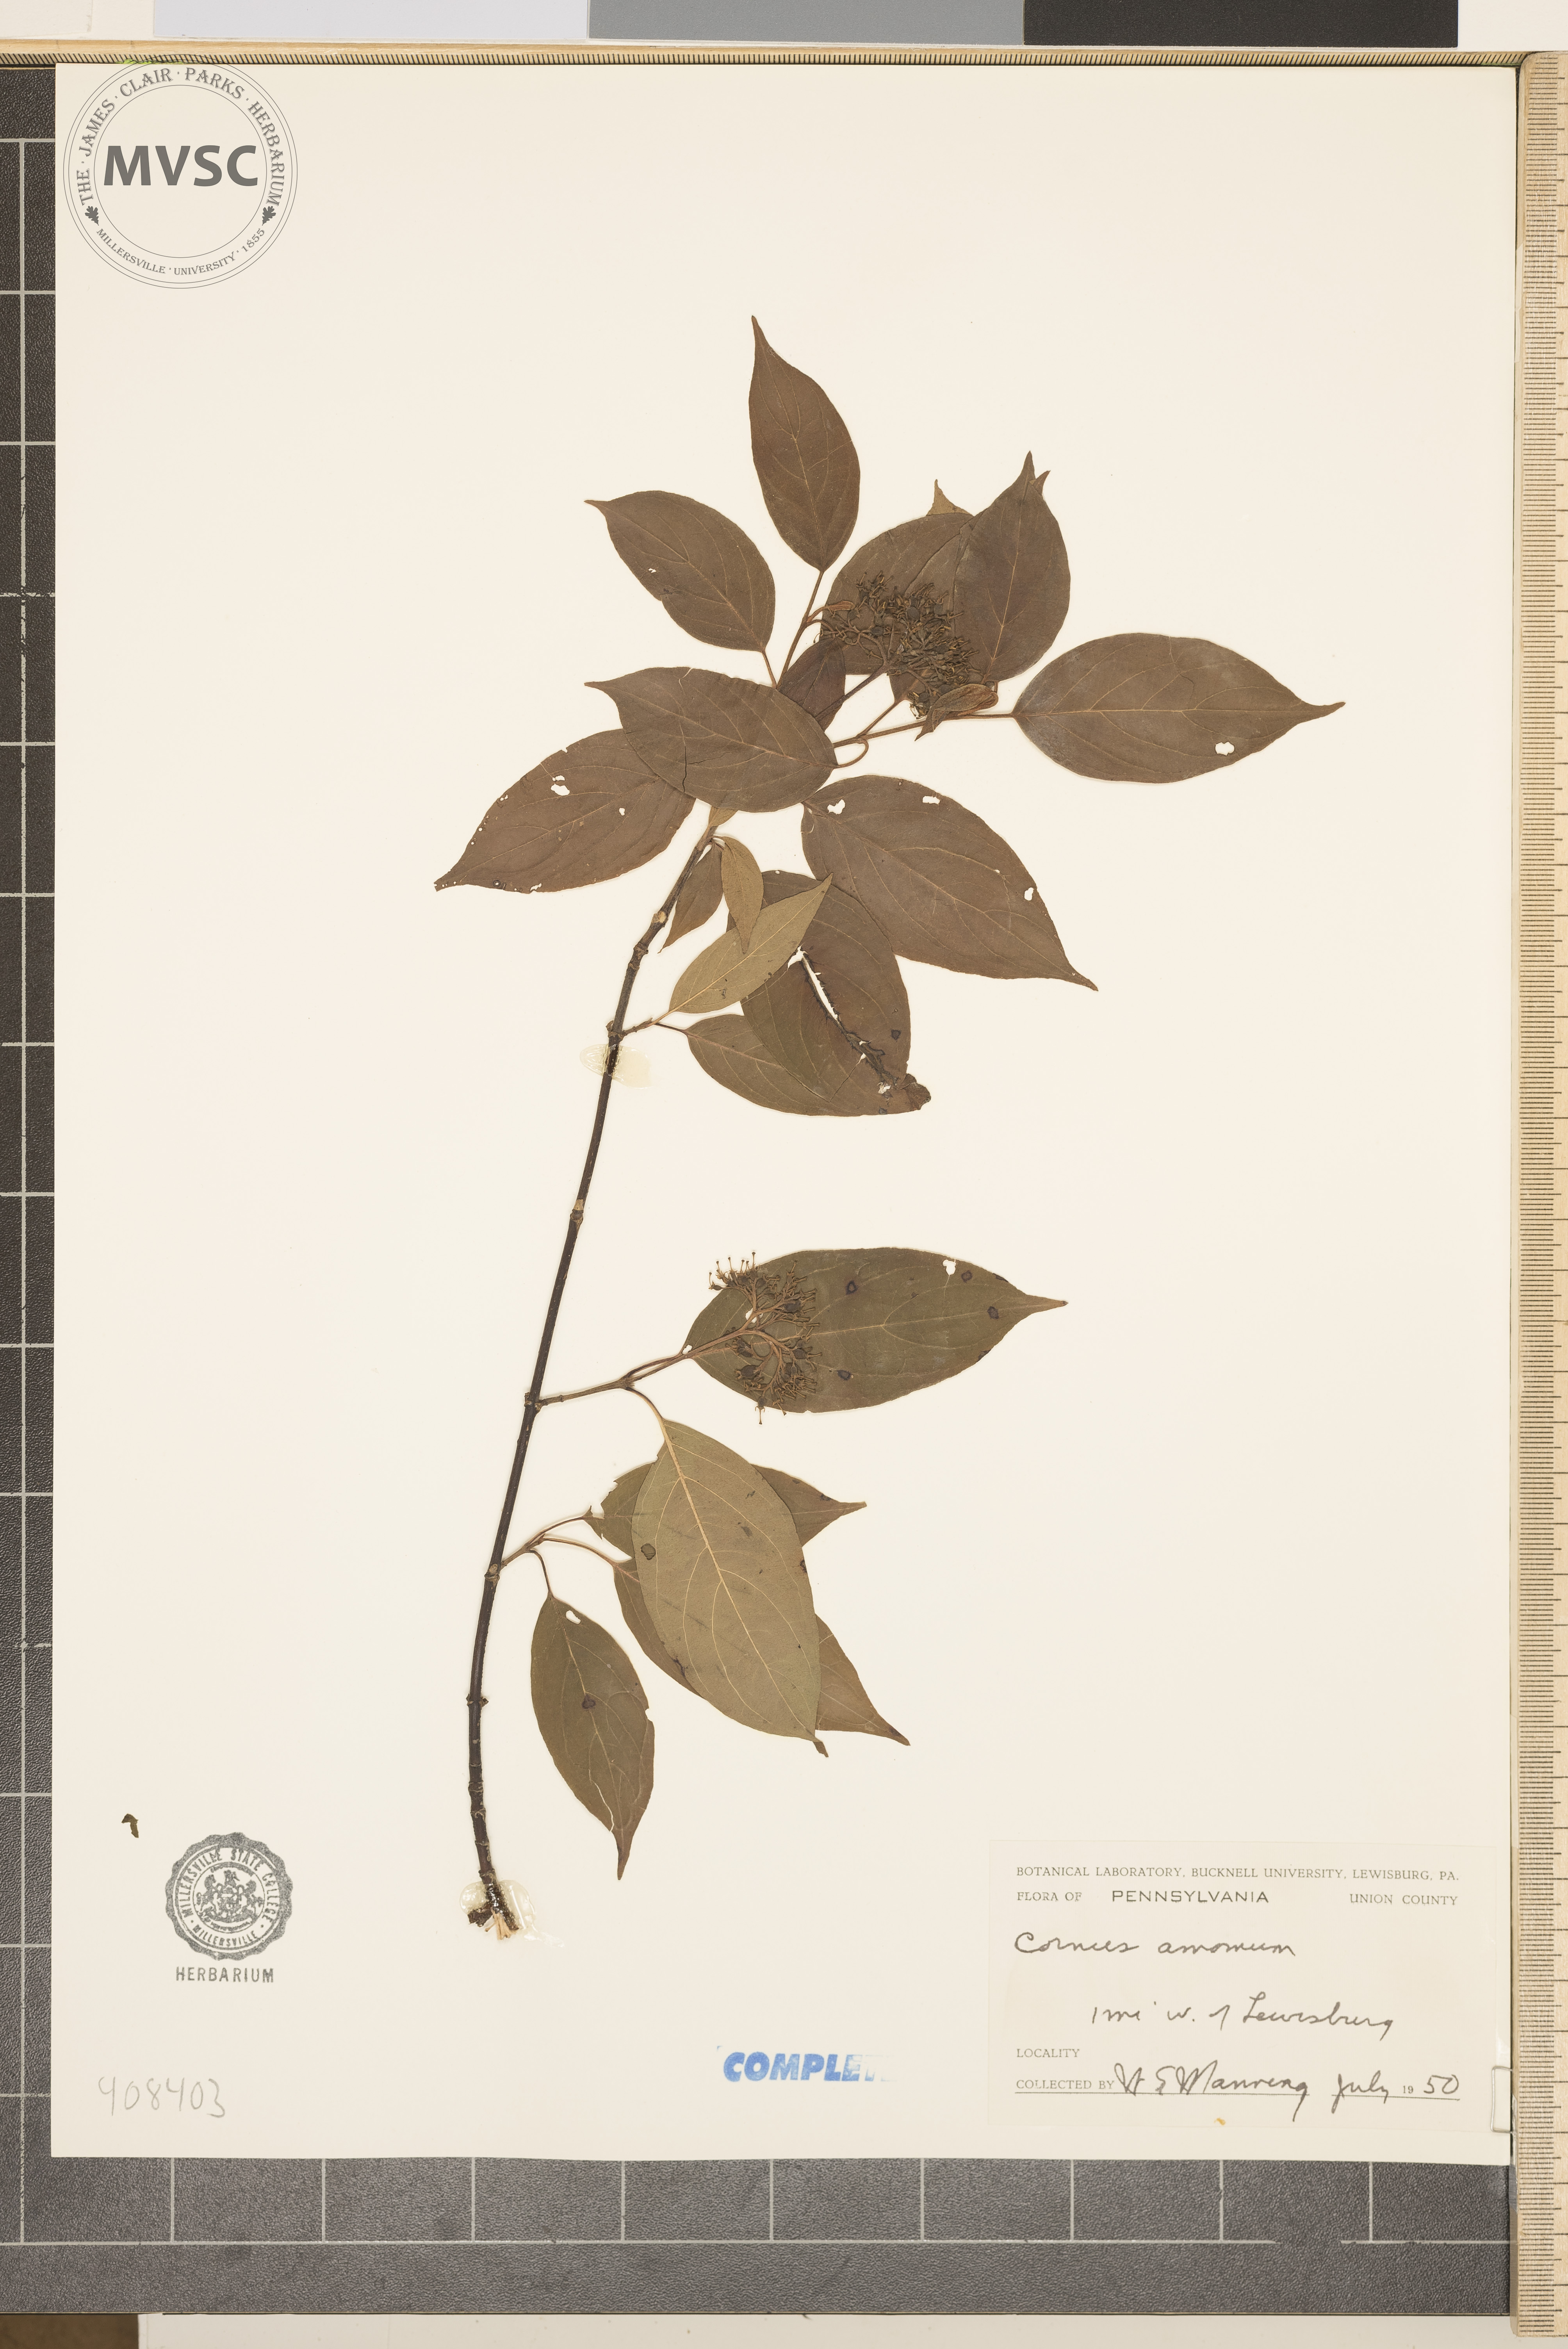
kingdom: Plantae
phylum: Tracheophyta
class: Magnoliopsida
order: Cornales
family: Cornaceae
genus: Cornus
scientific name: Cornus amomum
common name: Silky dogwood
